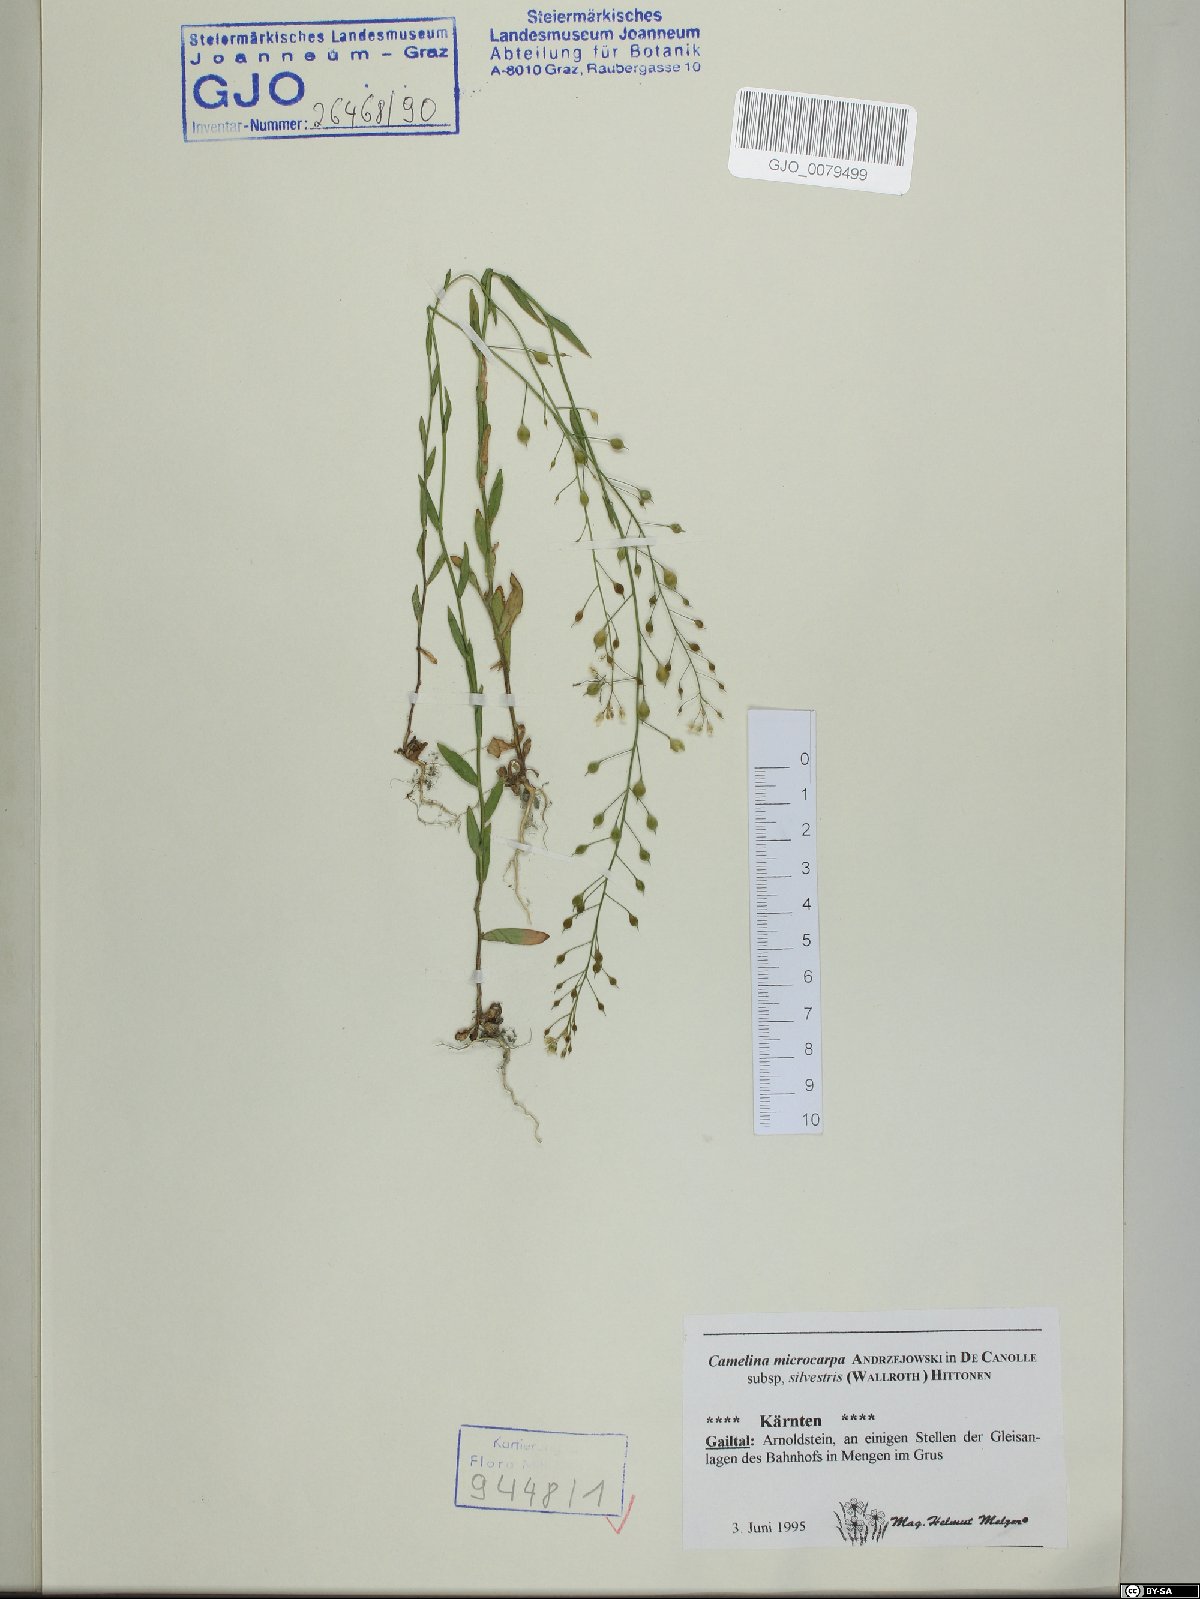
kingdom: Plantae
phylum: Tracheophyta
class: Magnoliopsida
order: Brassicales
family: Brassicaceae
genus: Camelina
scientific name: Camelina microcarpa
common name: Lesser gold-of-pleasure
